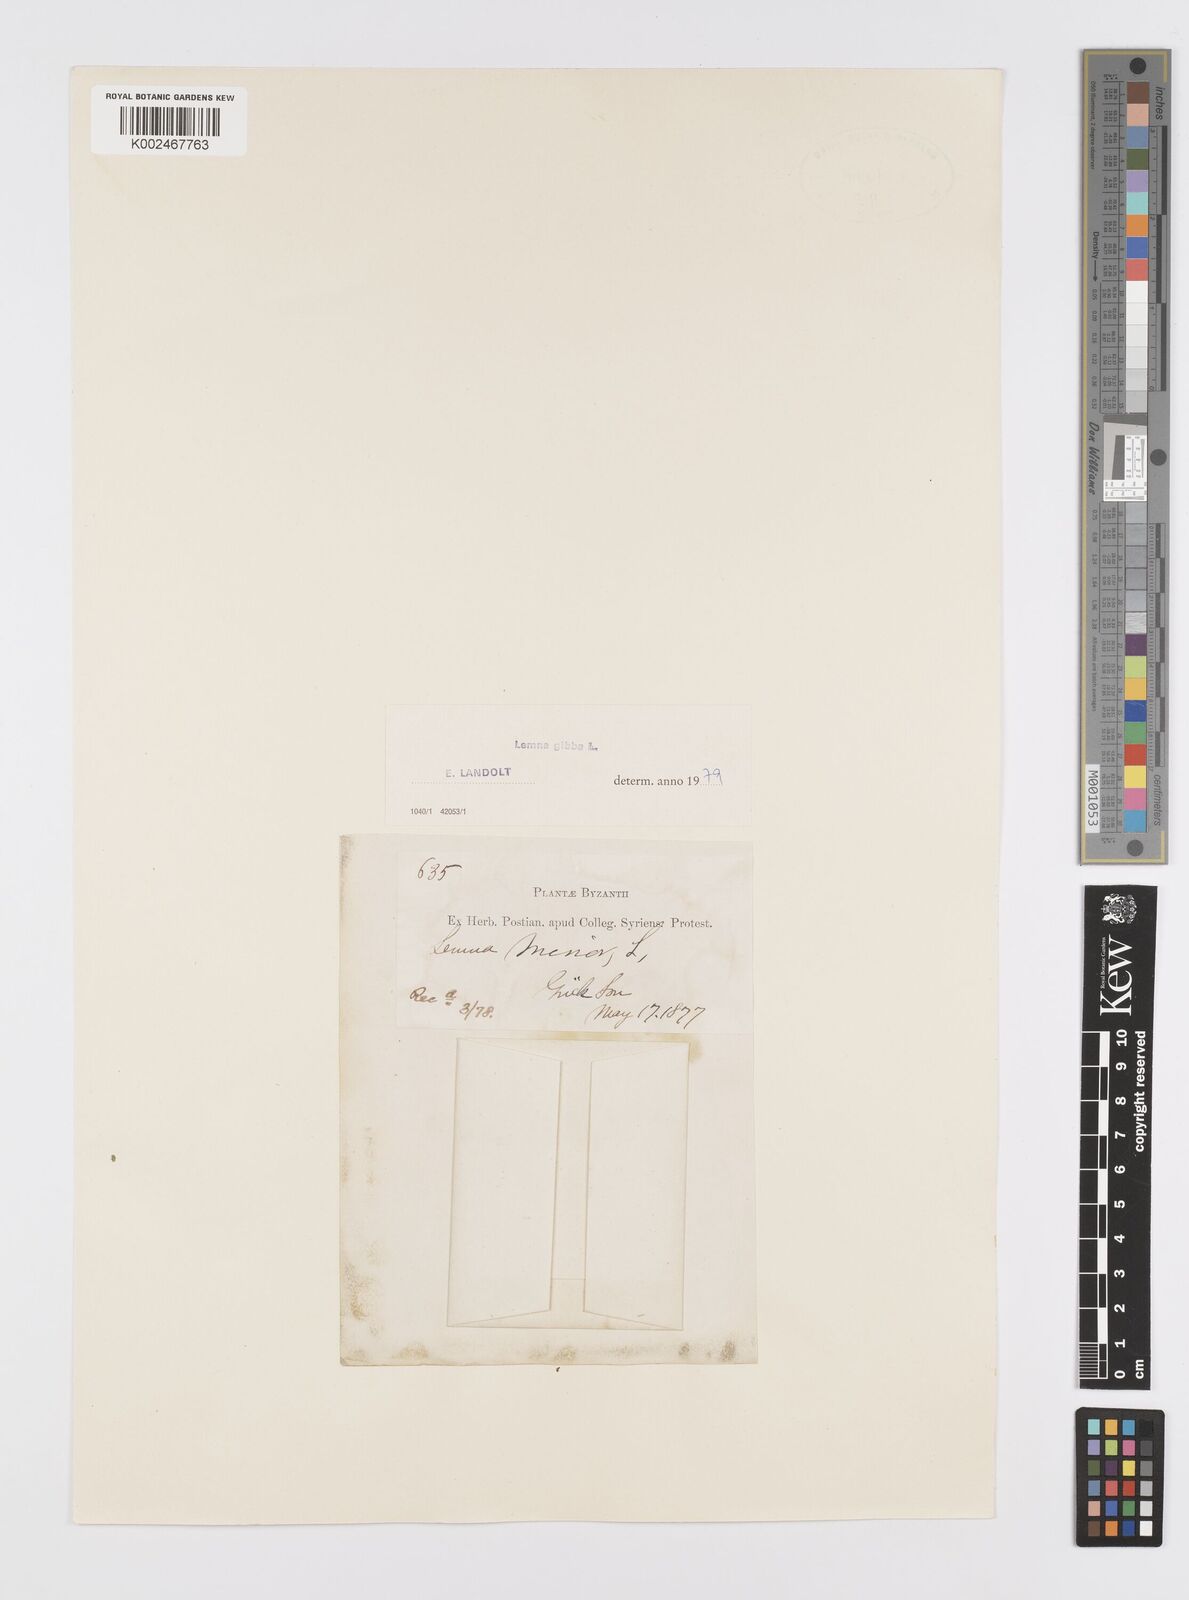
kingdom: Plantae
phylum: Tracheophyta
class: Liliopsida
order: Alismatales
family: Araceae
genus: Lemna
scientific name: Lemna gibba
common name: Fat duckweed
